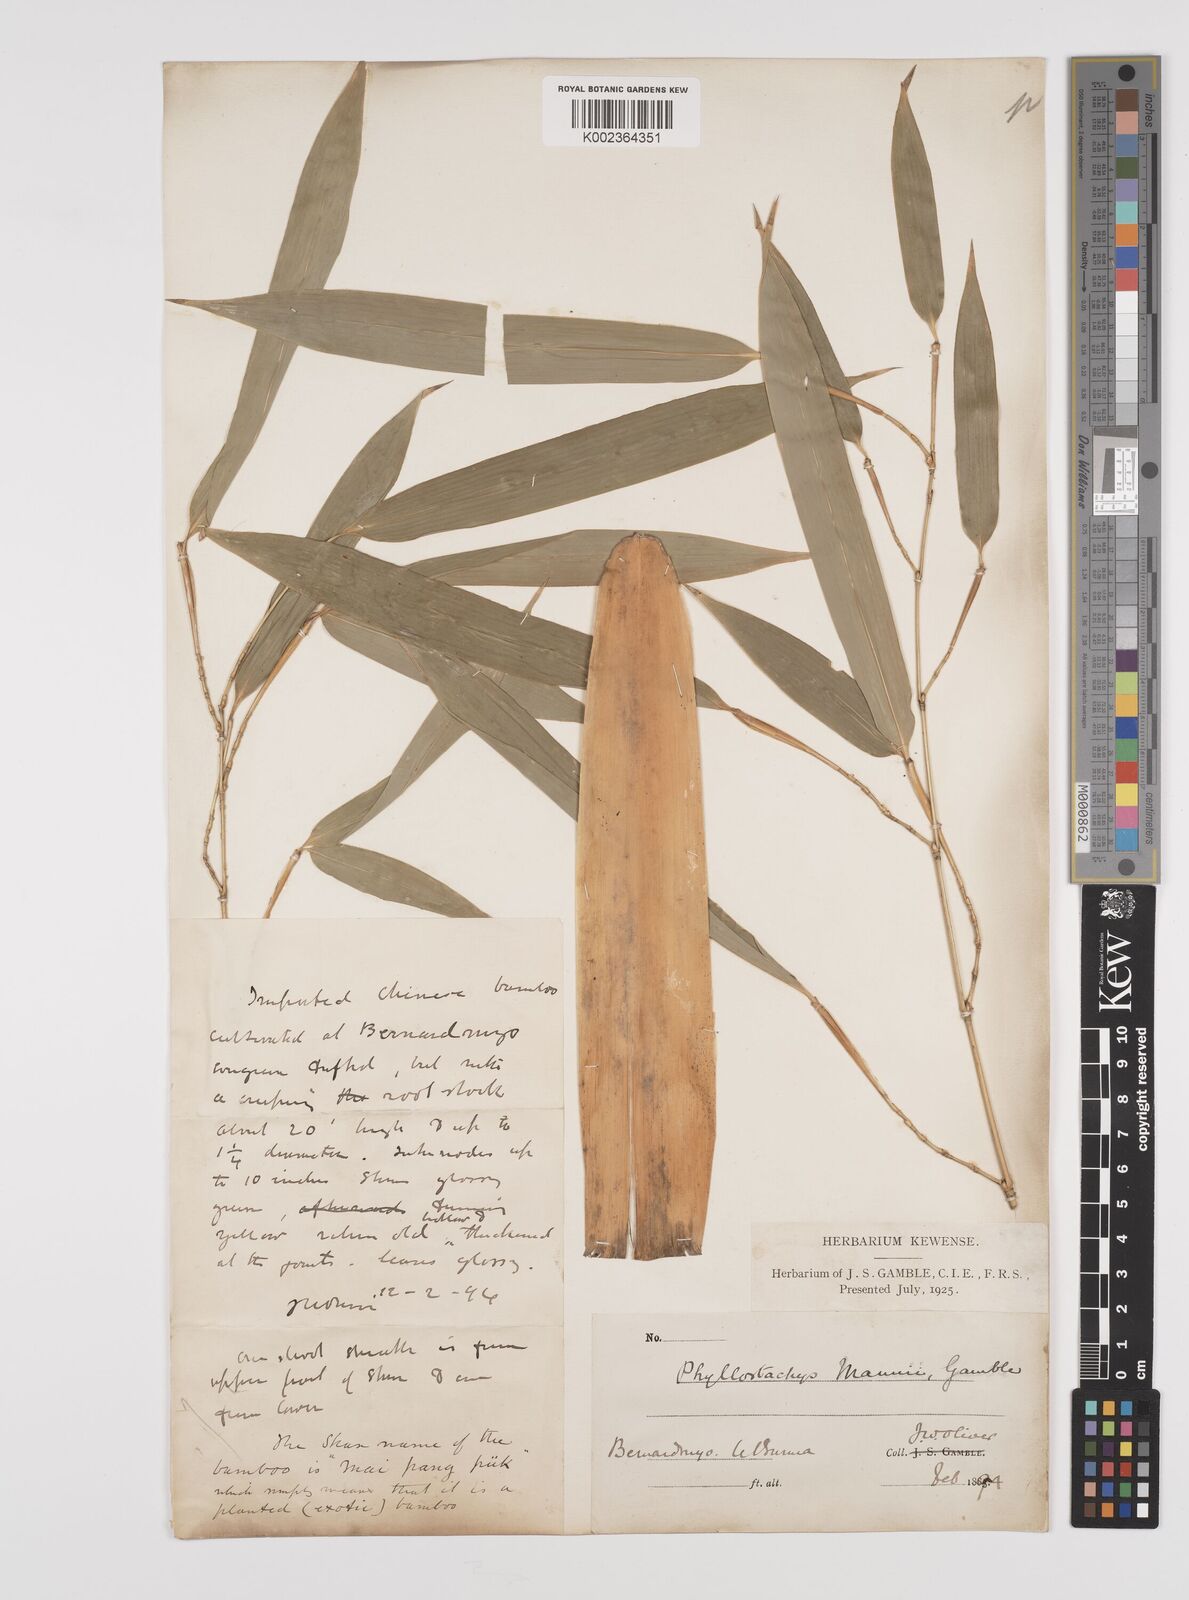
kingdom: Plantae
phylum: Tracheophyta
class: Liliopsida
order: Poales
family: Poaceae
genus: Phyllostachys
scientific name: Phyllostachys mannii
